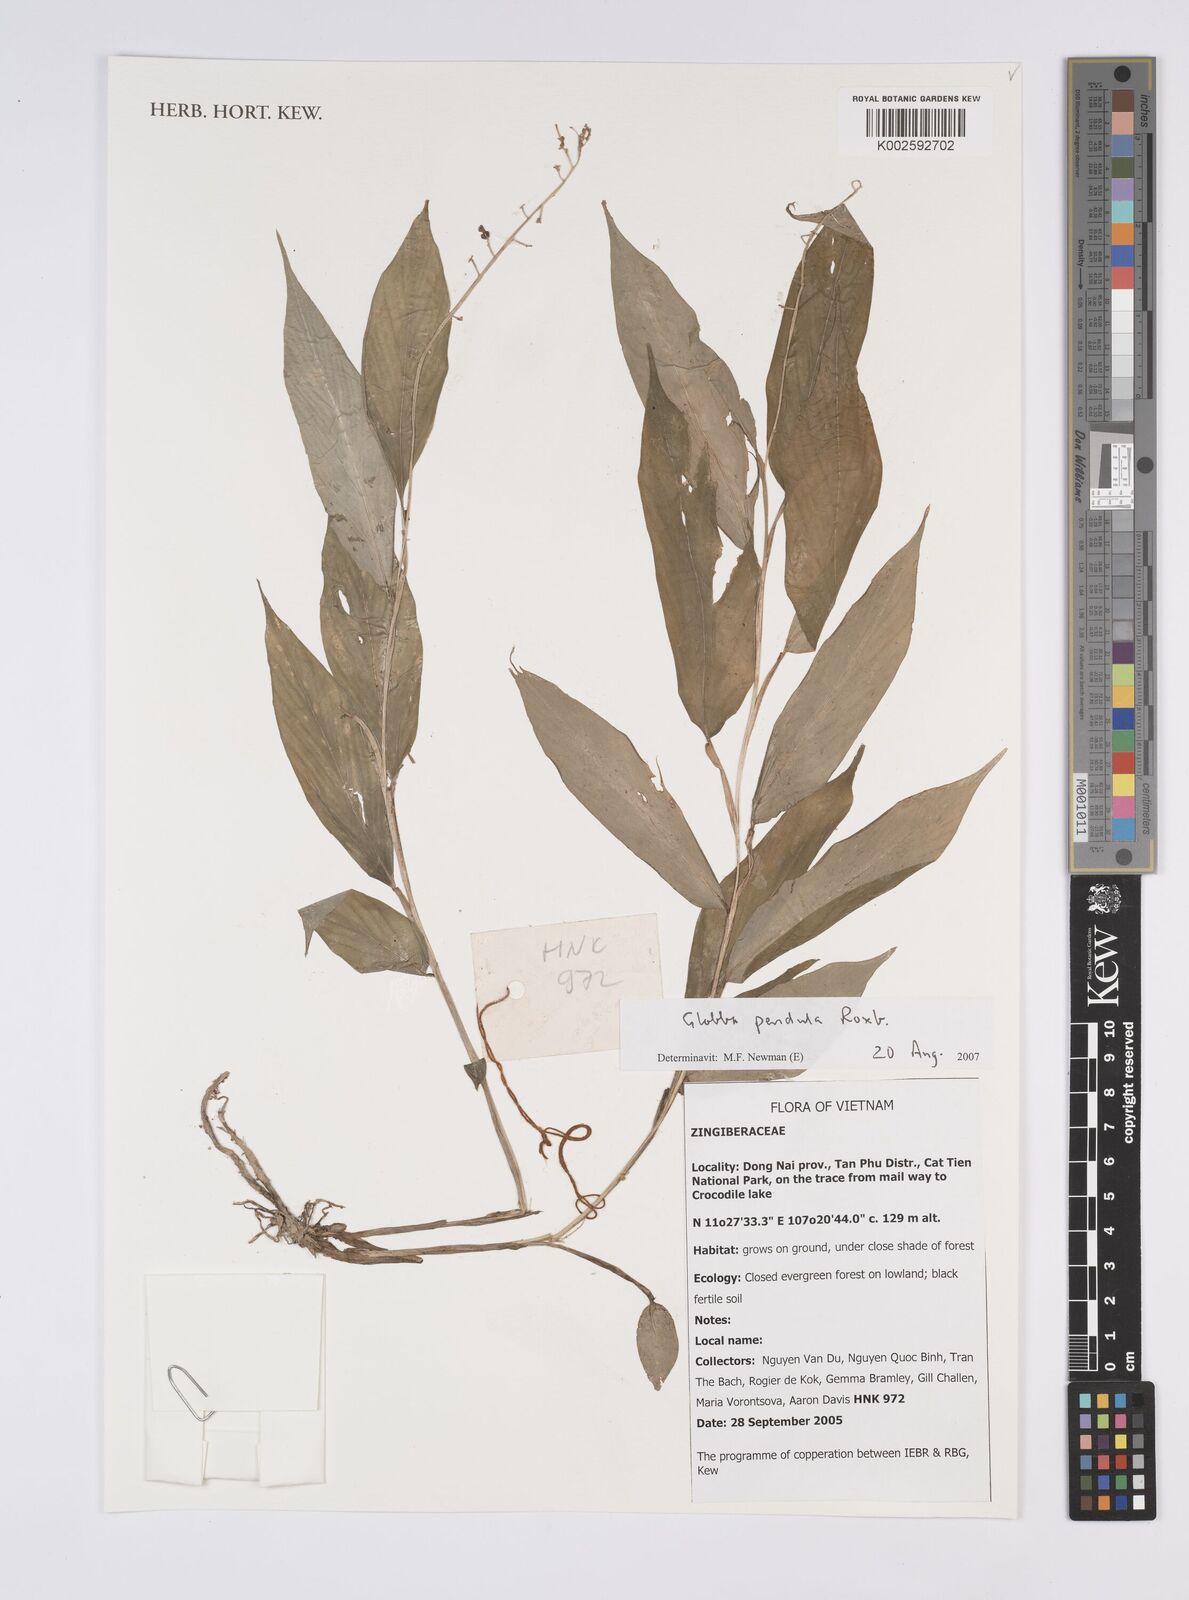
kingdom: Plantae
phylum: Tracheophyta
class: Liliopsida
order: Zingiberales
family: Zingiberaceae
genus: Globba
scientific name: Globba pendula
